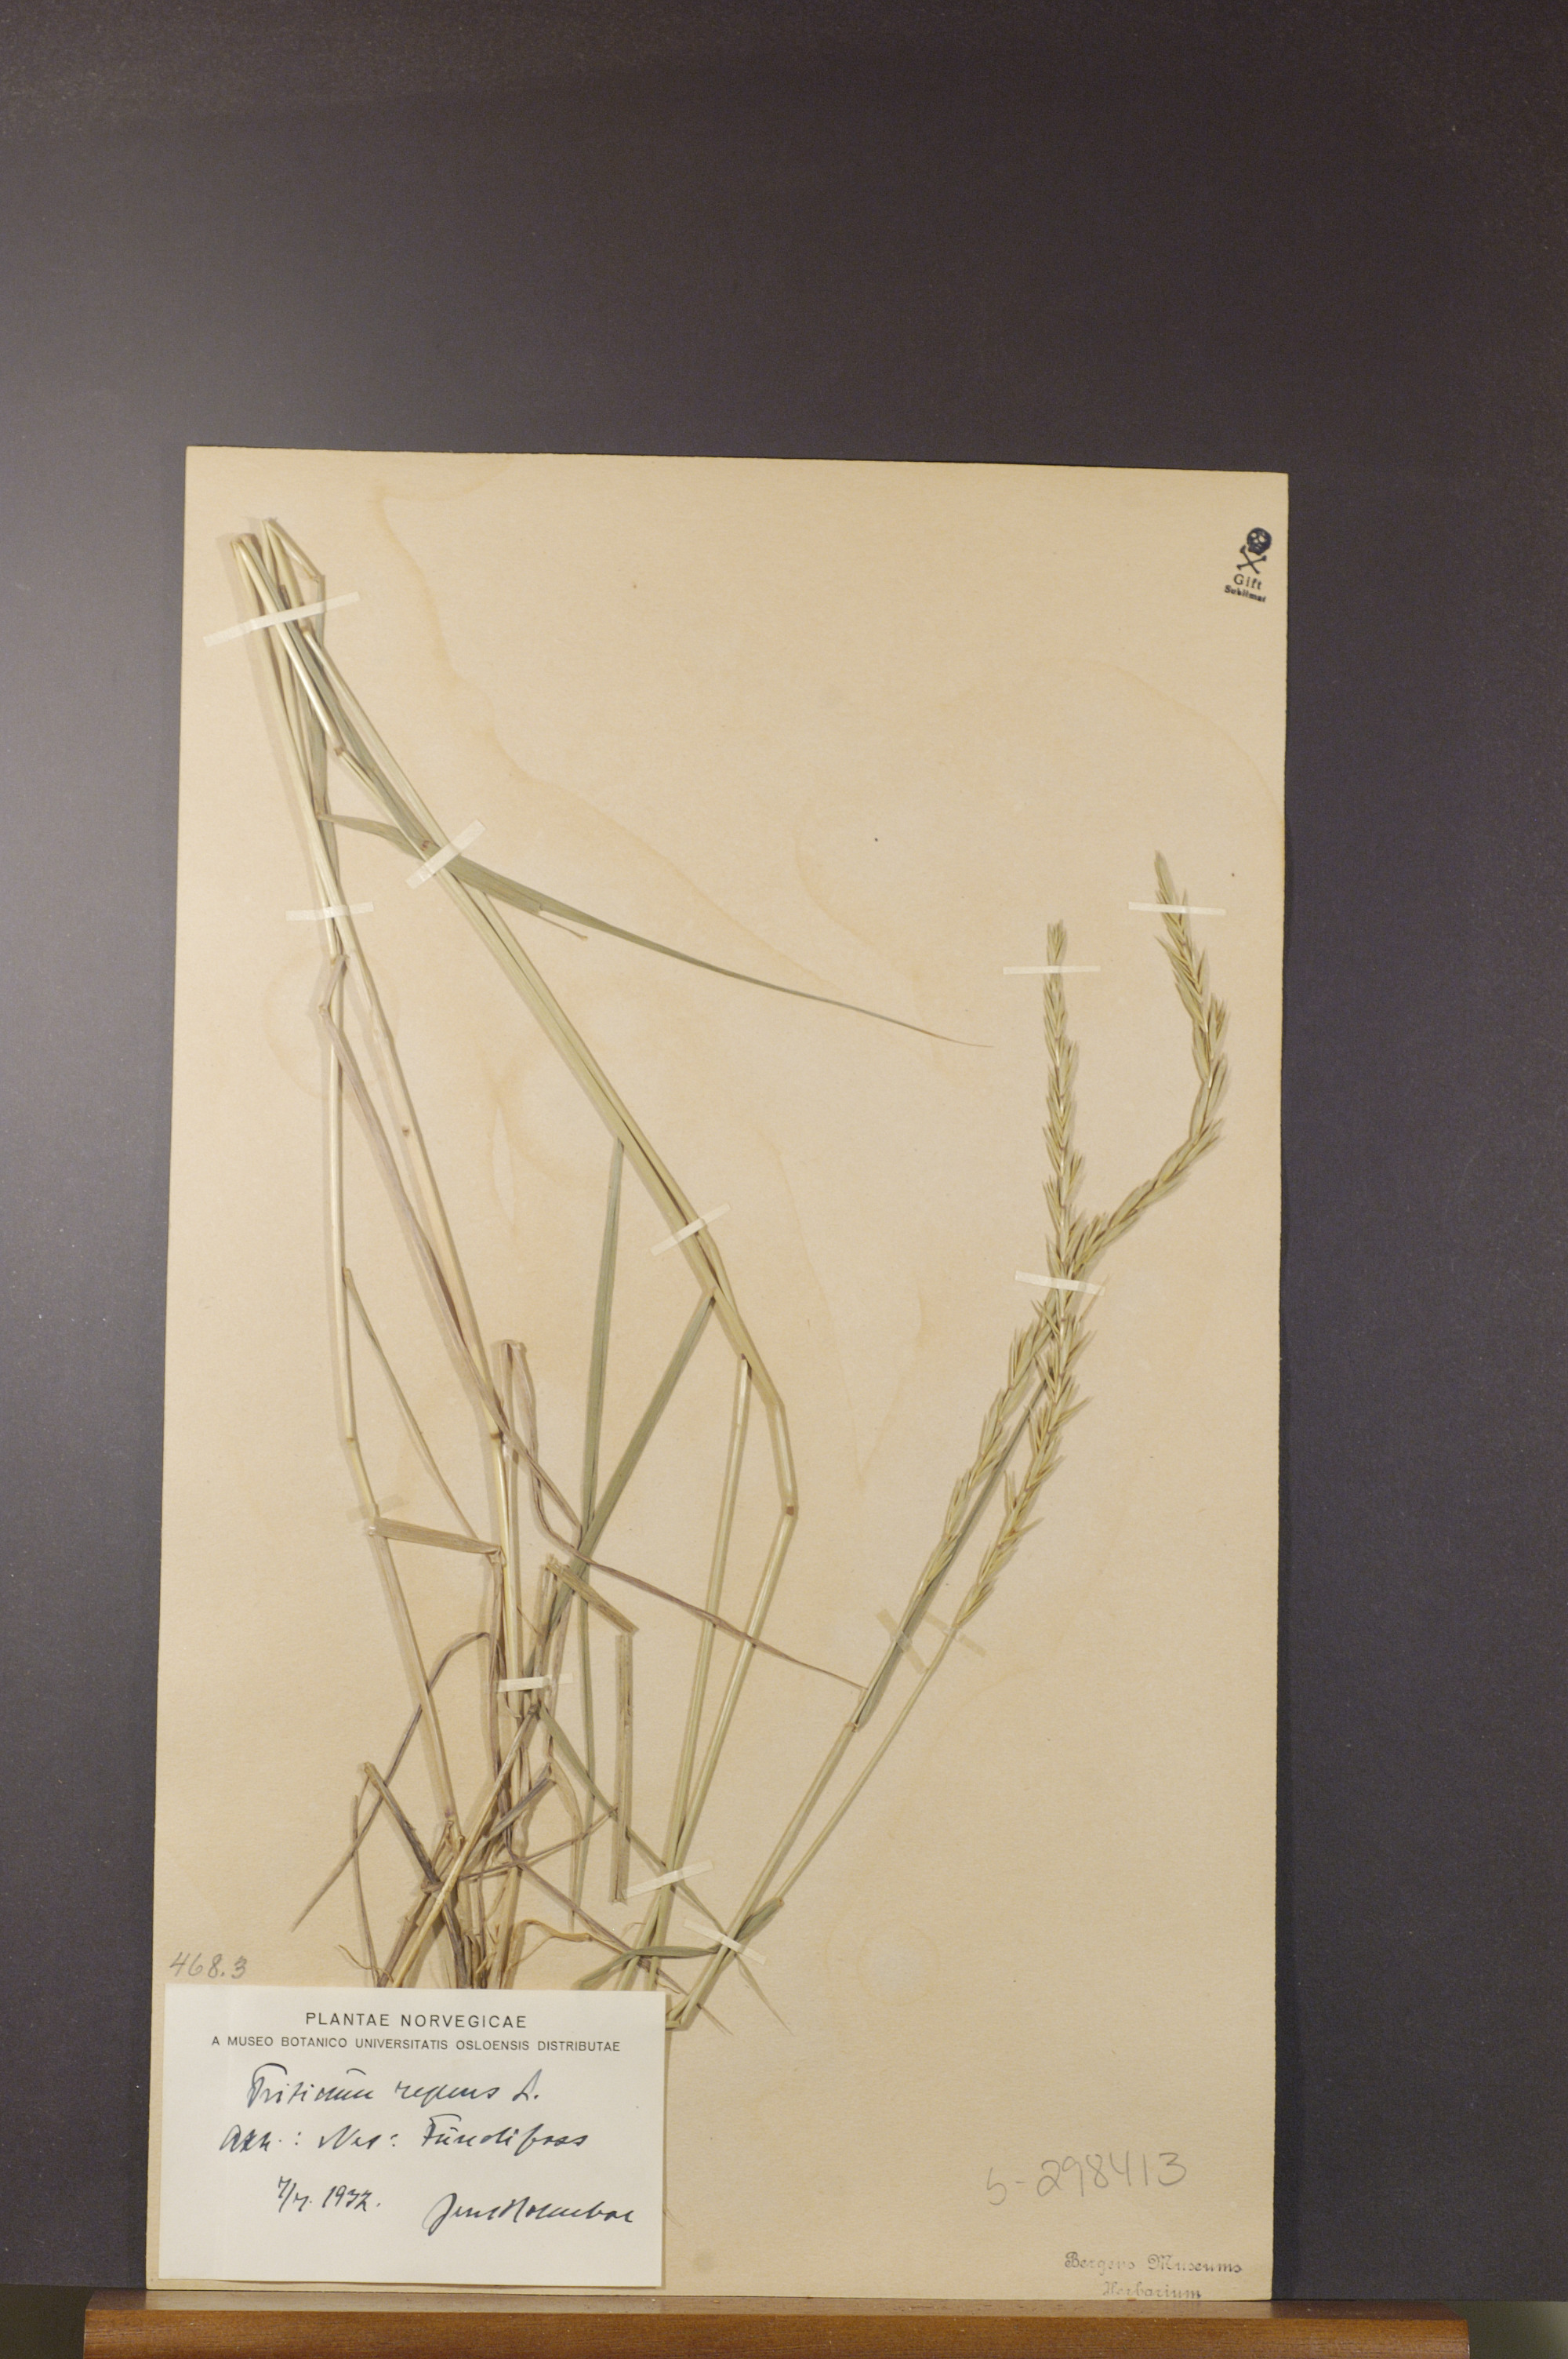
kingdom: Plantae
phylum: Tracheophyta
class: Liliopsida
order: Poales
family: Poaceae
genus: Elymus
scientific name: Elymus repens
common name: Quackgrass
